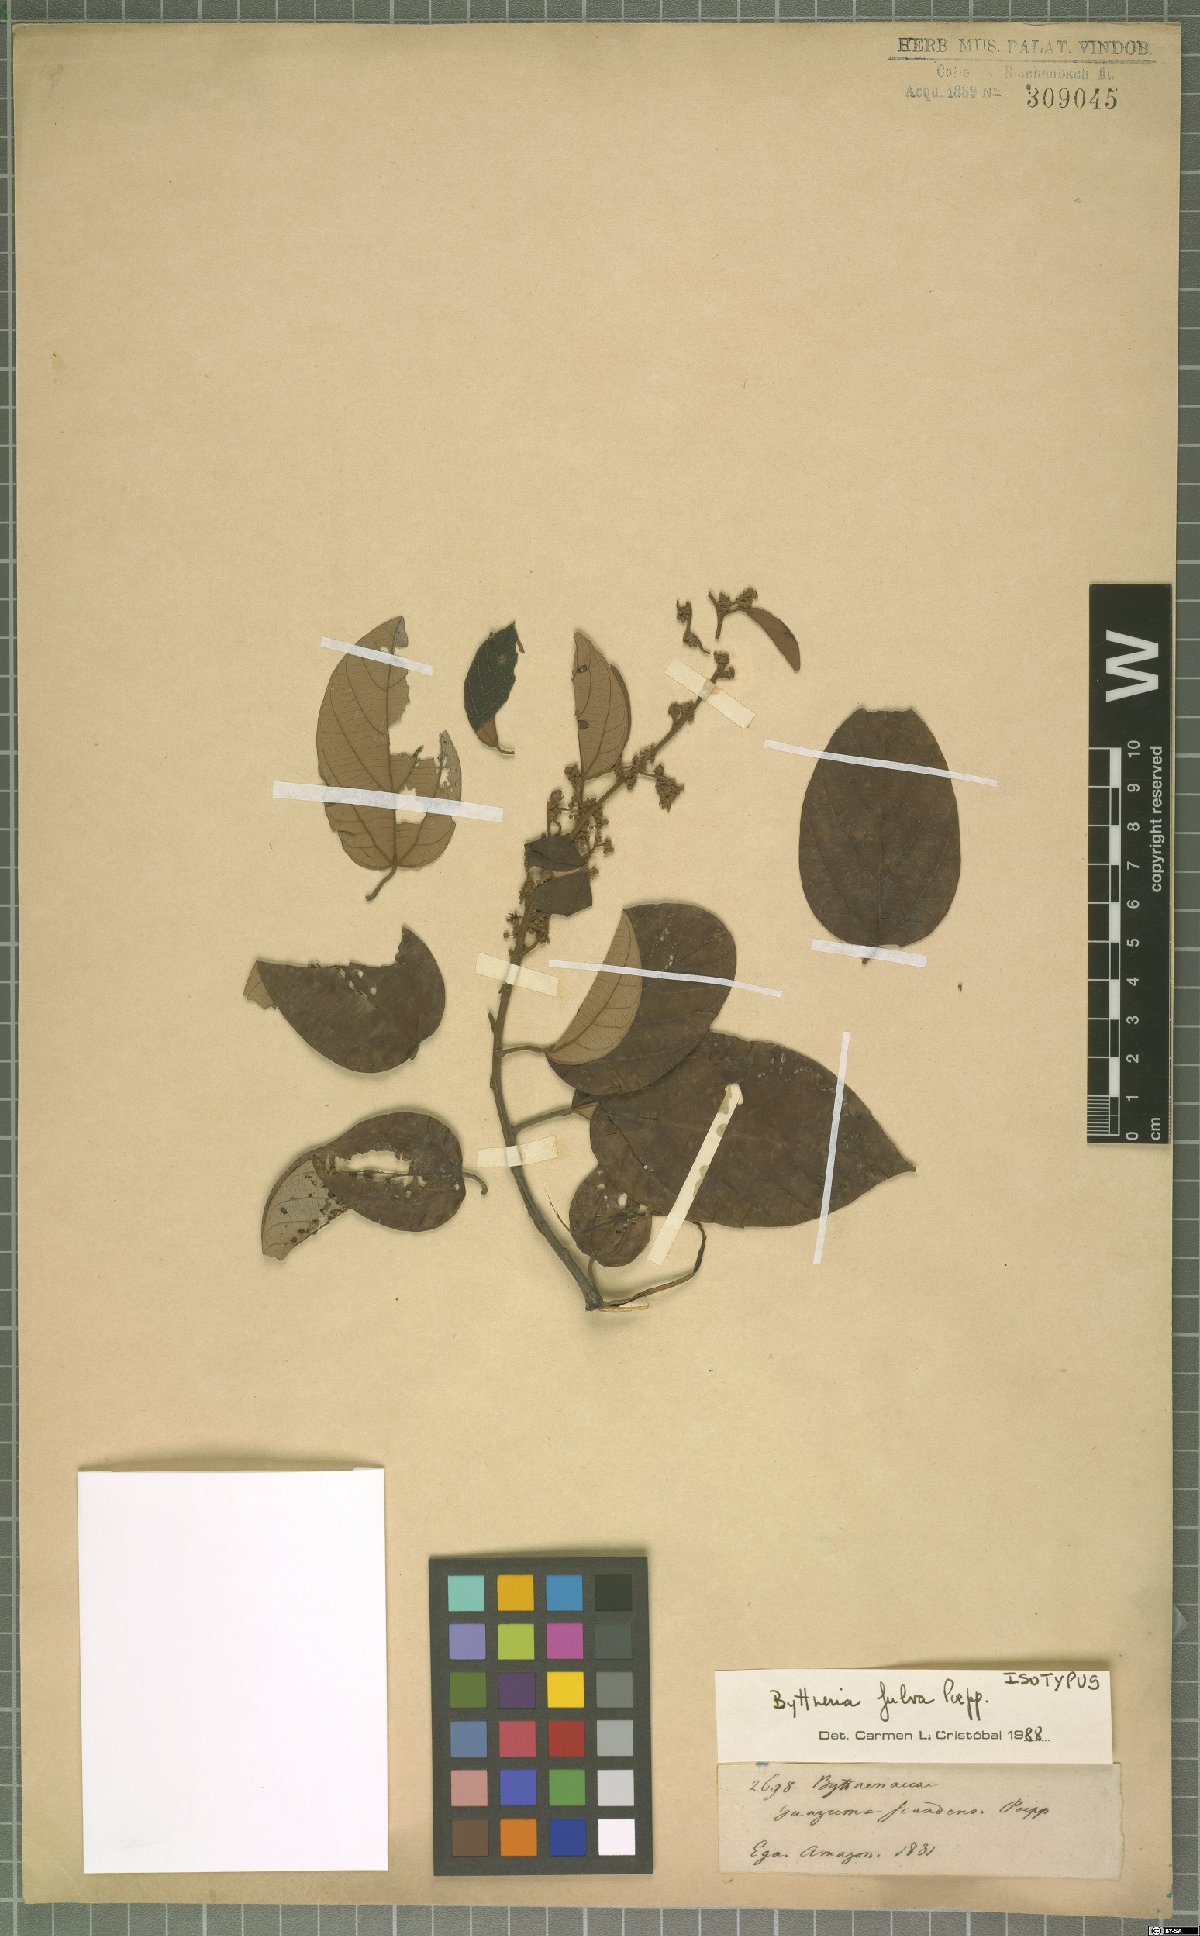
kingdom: Plantae
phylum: Tracheophyta
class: Magnoliopsida
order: Malvales
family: Malvaceae
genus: Byttneria
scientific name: Byttneria fulva
